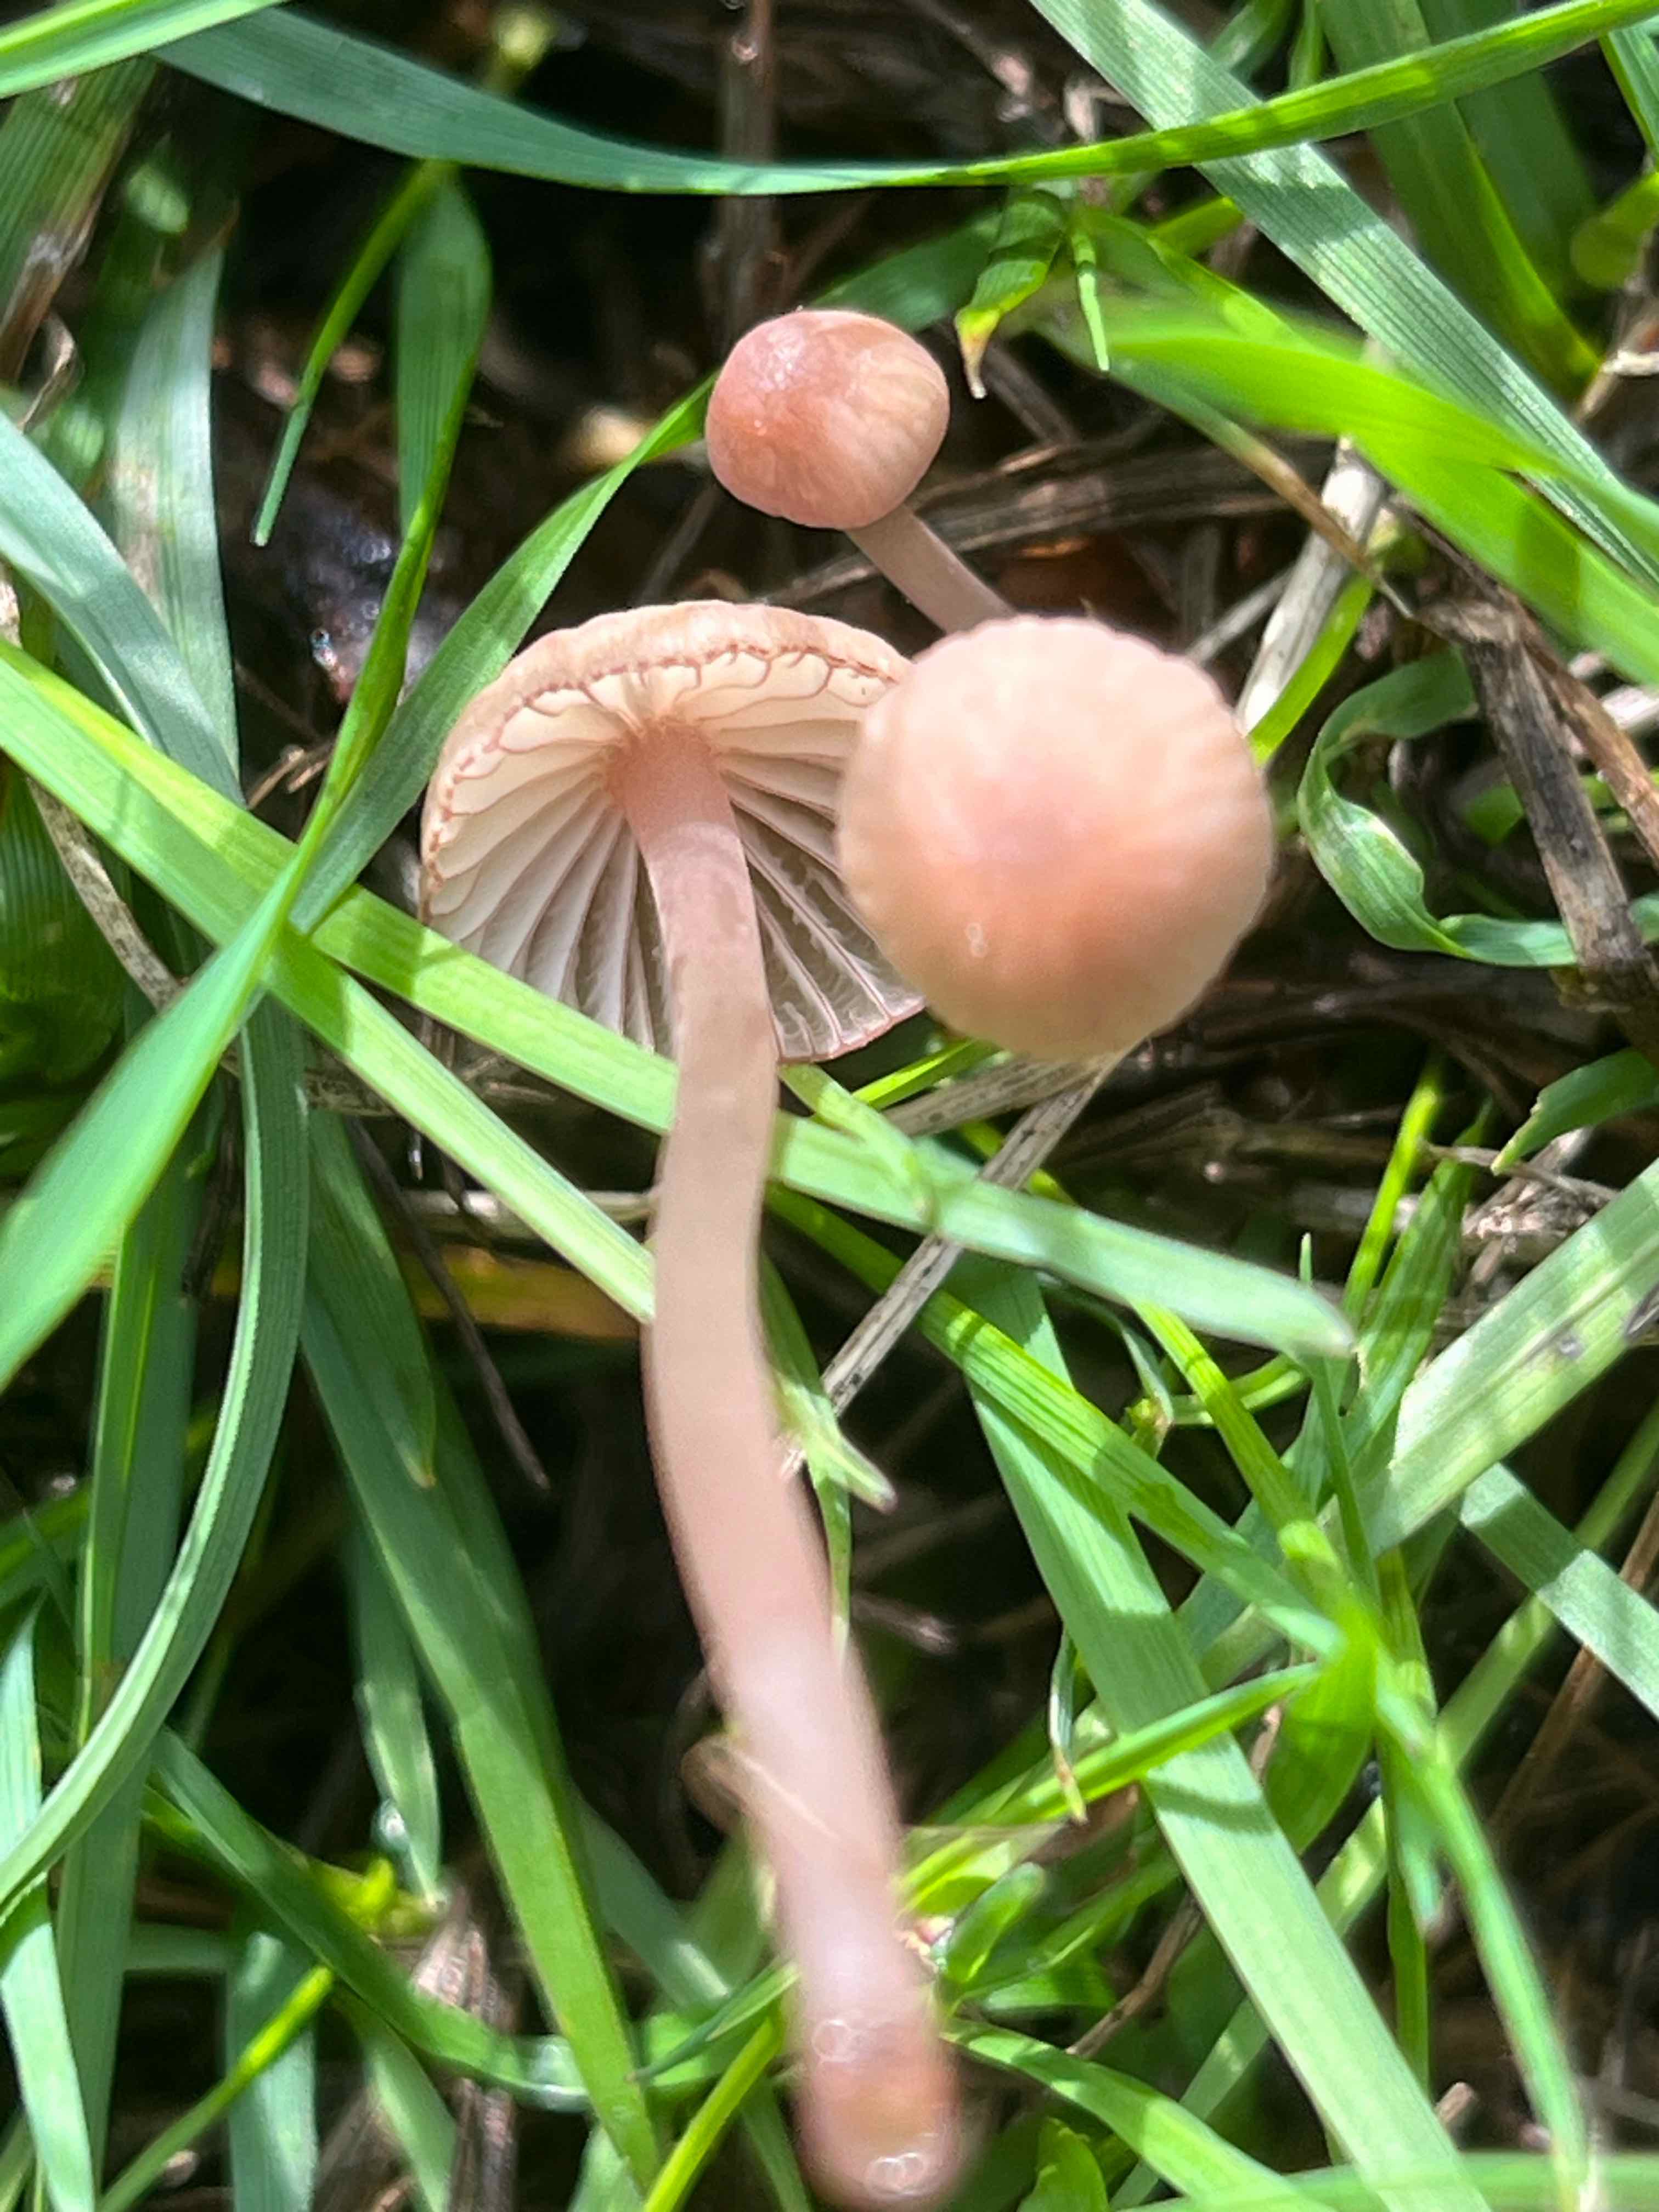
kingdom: Fungi
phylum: Basidiomycota
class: Agaricomycetes
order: Agaricales
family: Mycenaceae
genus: Mycena
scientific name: Mycena sanguinolenta
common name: rødmælket huesvamp
